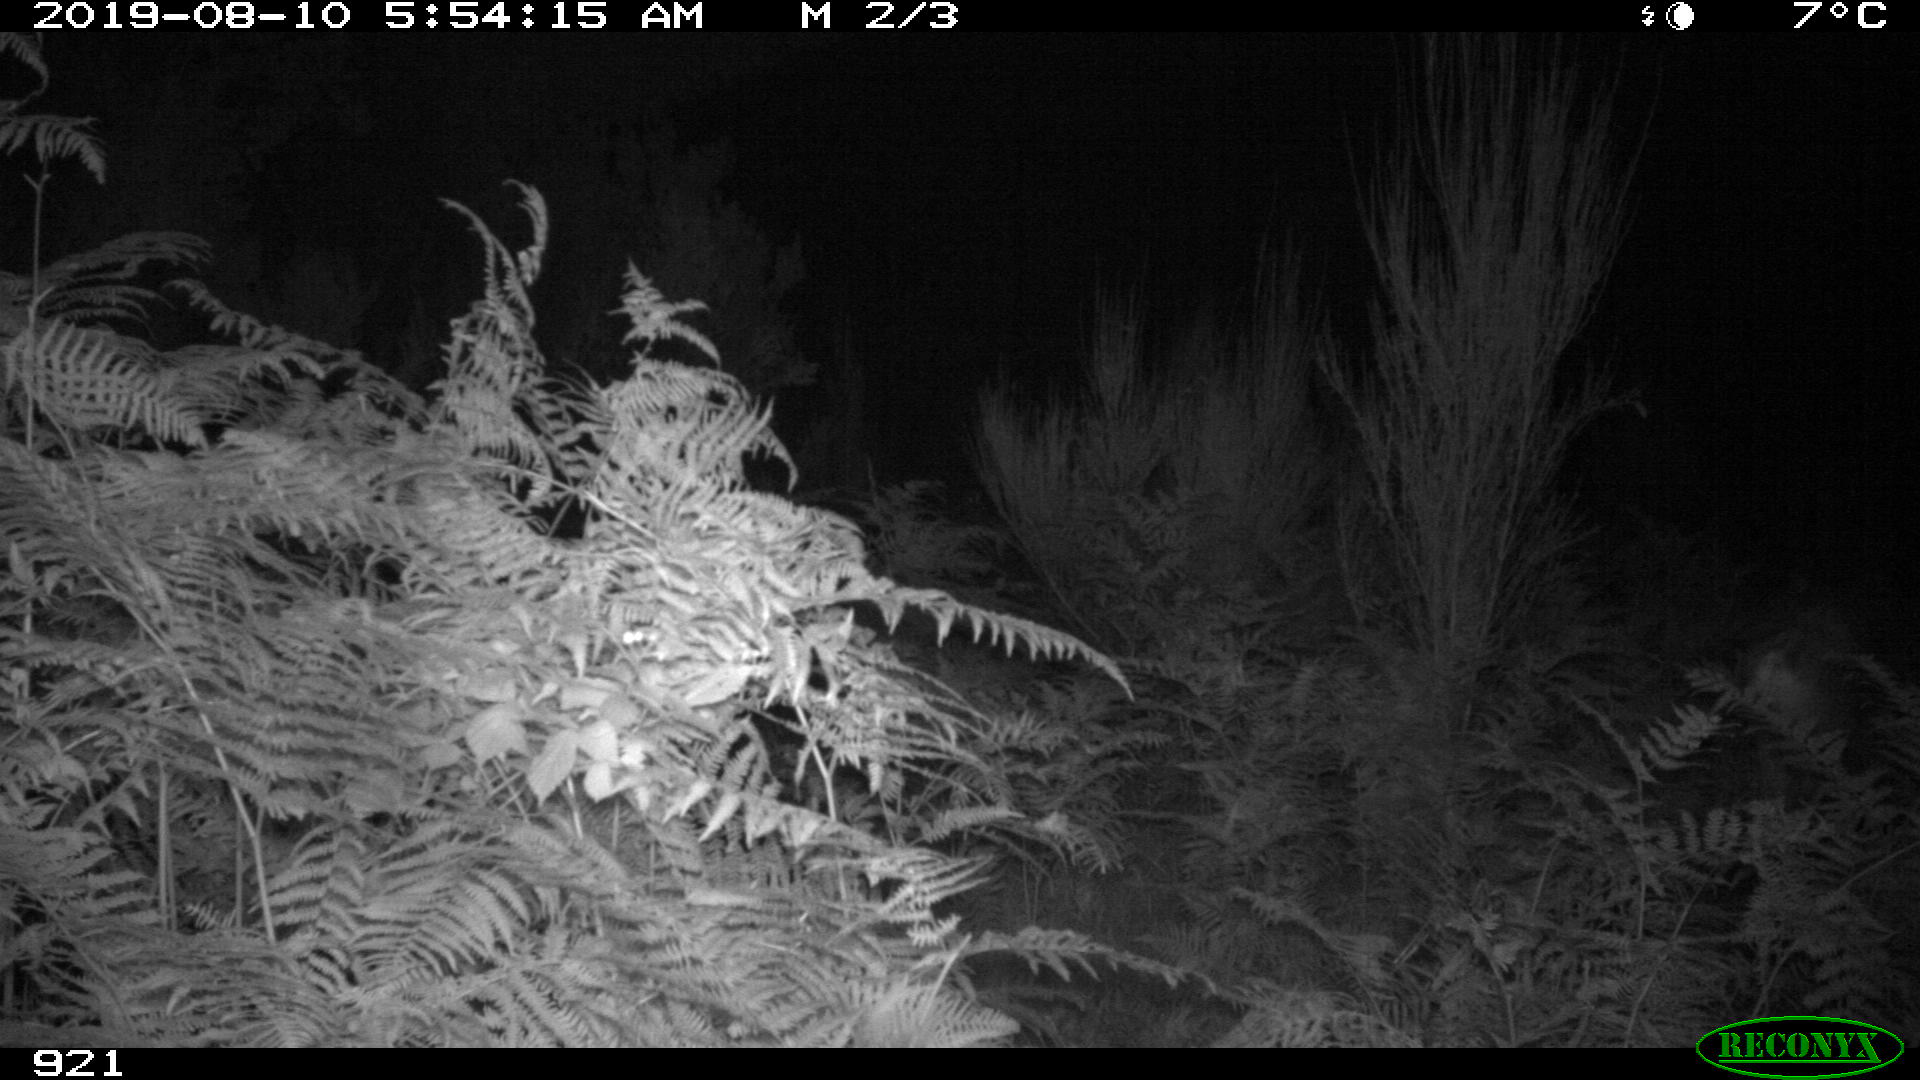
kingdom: Animalia
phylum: Chordata
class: Mammalia
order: Artiodactyla
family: Cervidae
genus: Capreolus
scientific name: Capreolus capreolus
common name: Western roe deer
